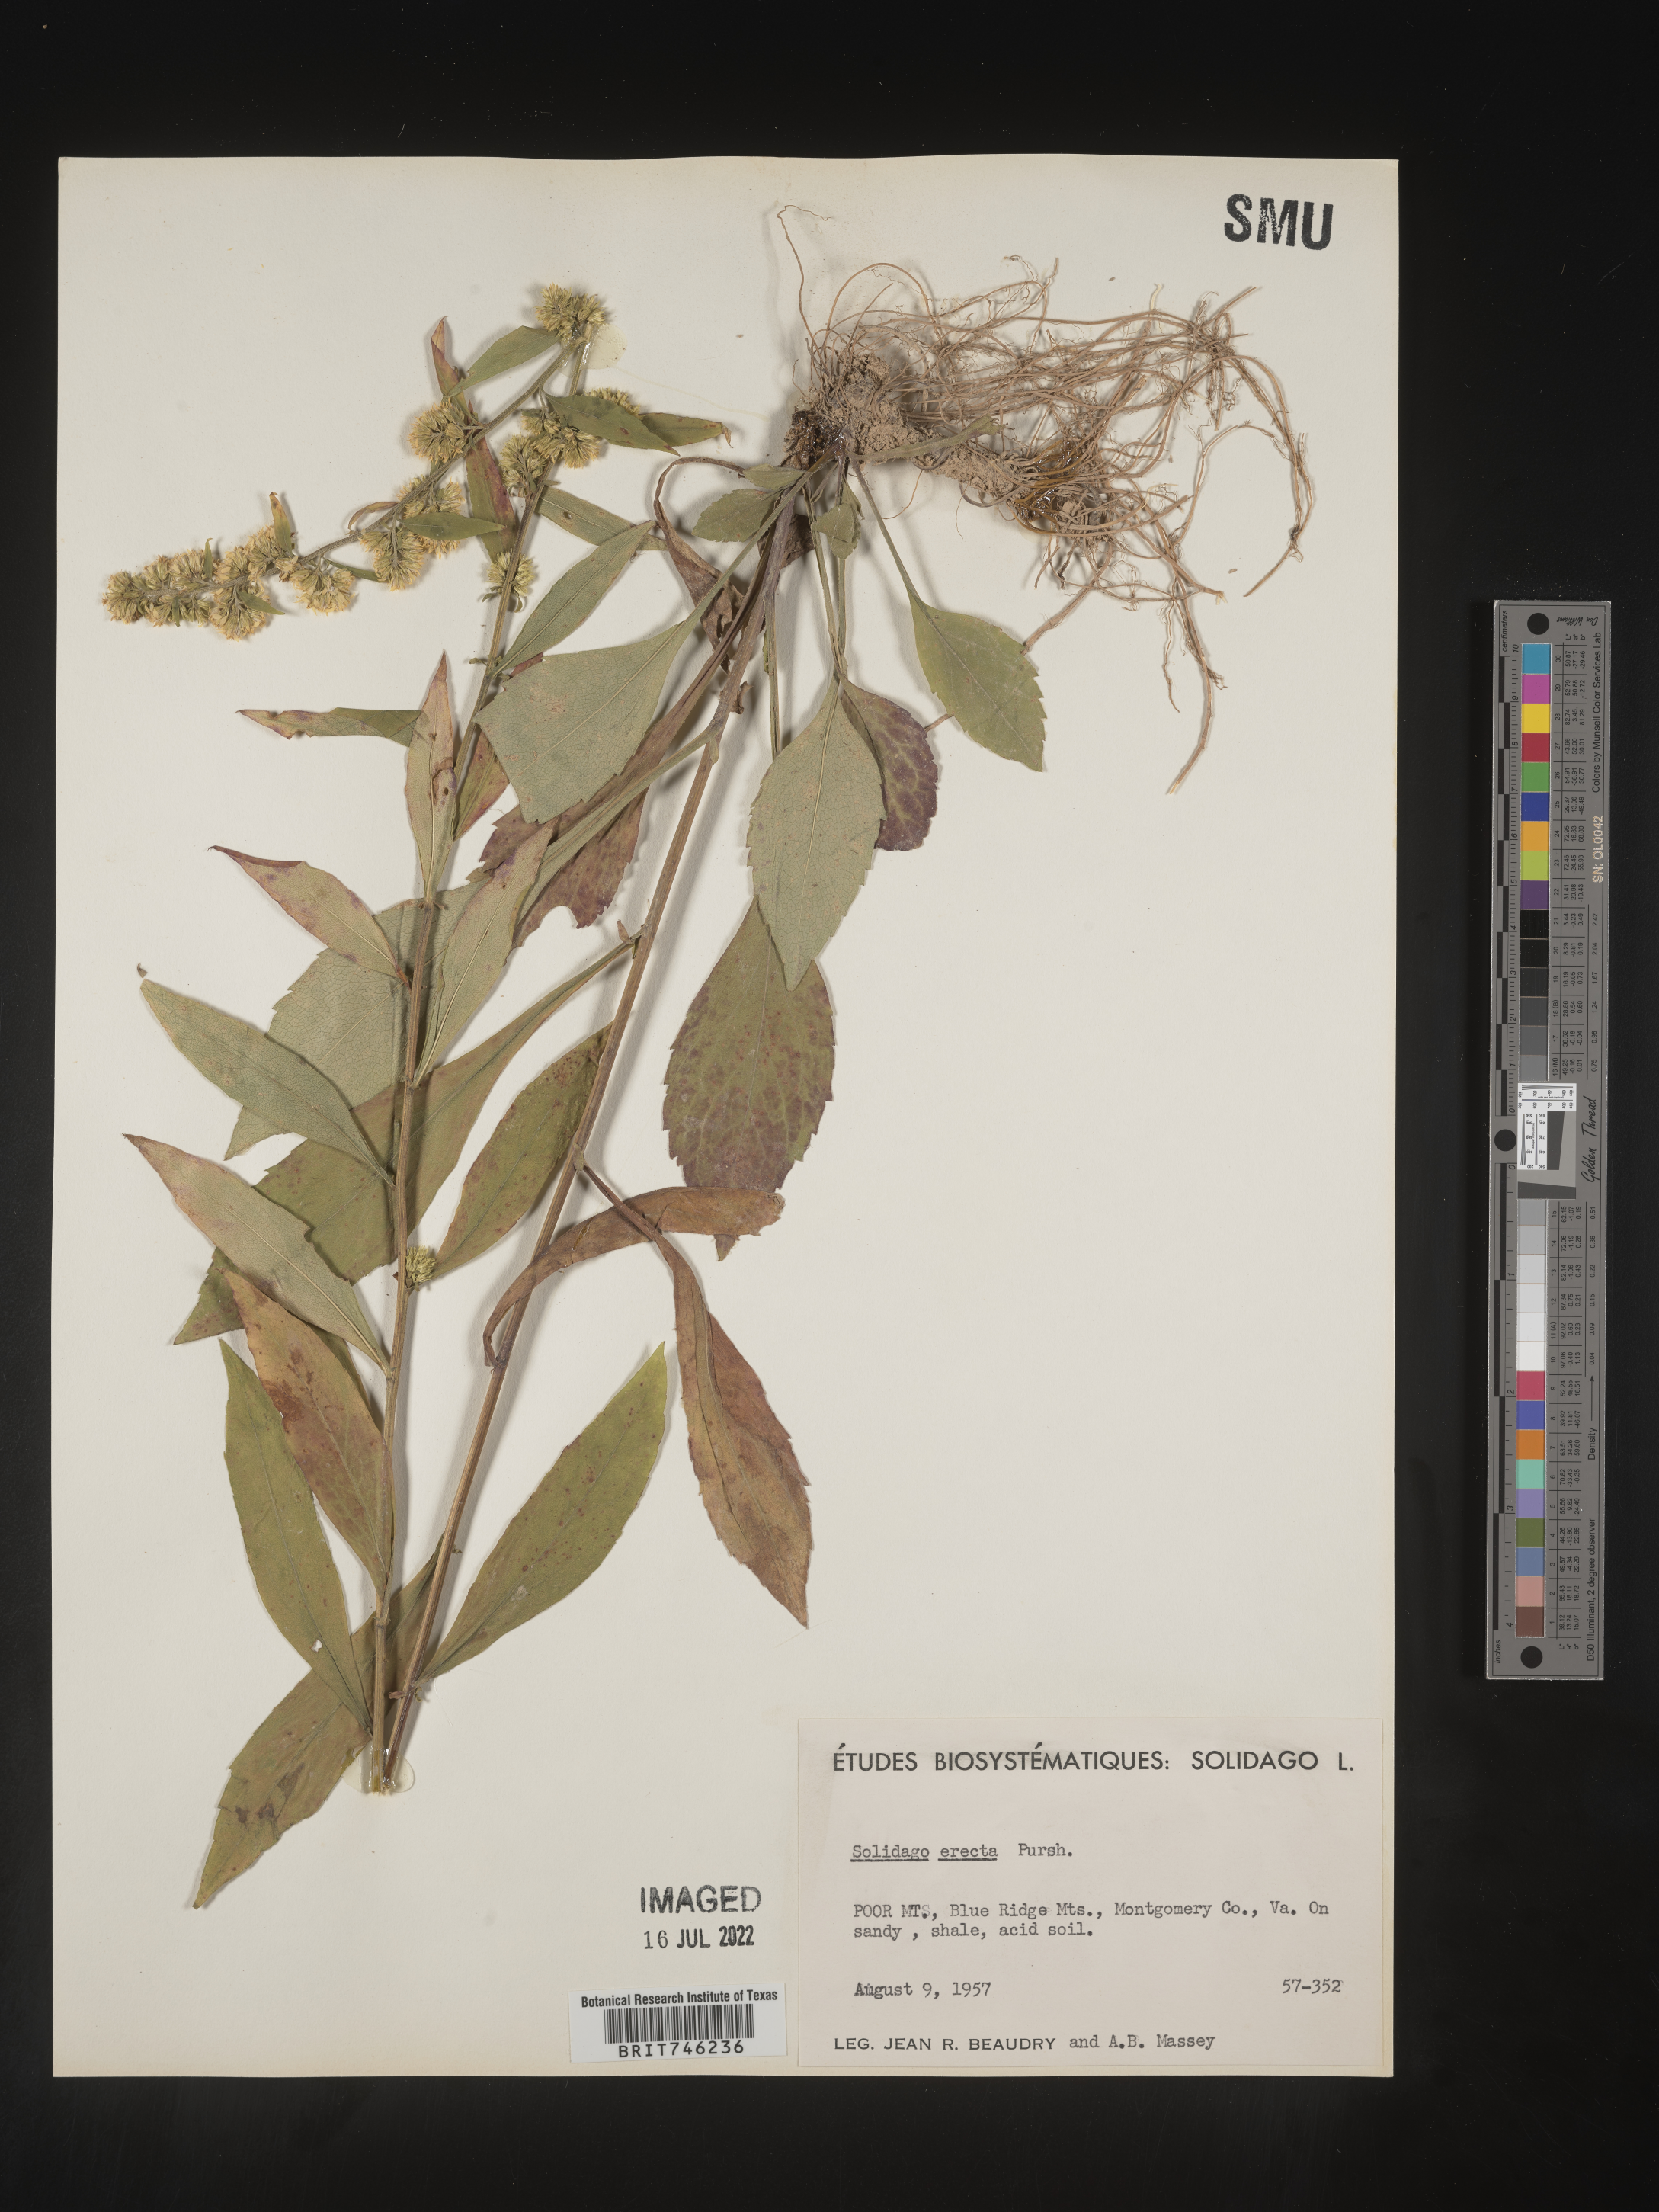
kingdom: Plantae
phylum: Tracheophyta
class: Magnoliopsida
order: Asterales
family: Asteraceae
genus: Solidago
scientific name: Solidago erecta
